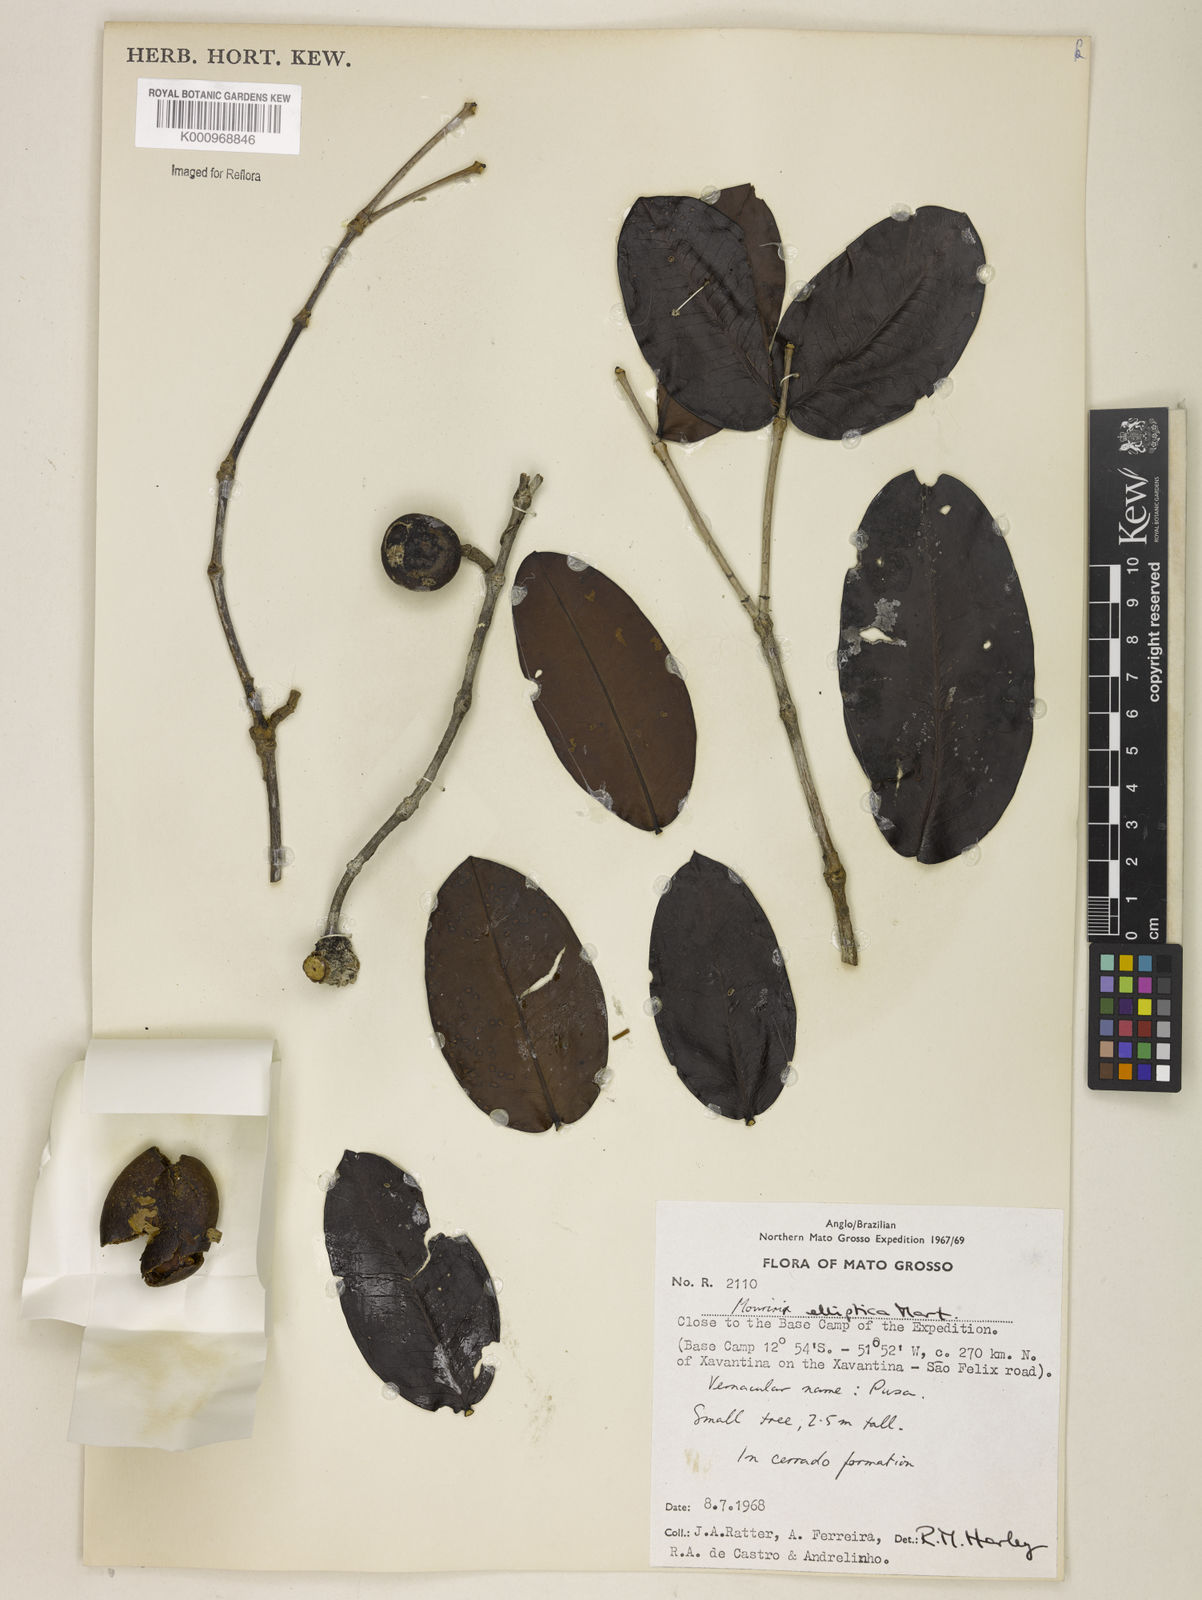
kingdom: Plantae
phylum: Tracheophyta
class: Magnoliopsida
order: Myrtales
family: Melastomataceae
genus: Mouriri
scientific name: Mouriri elliptica
